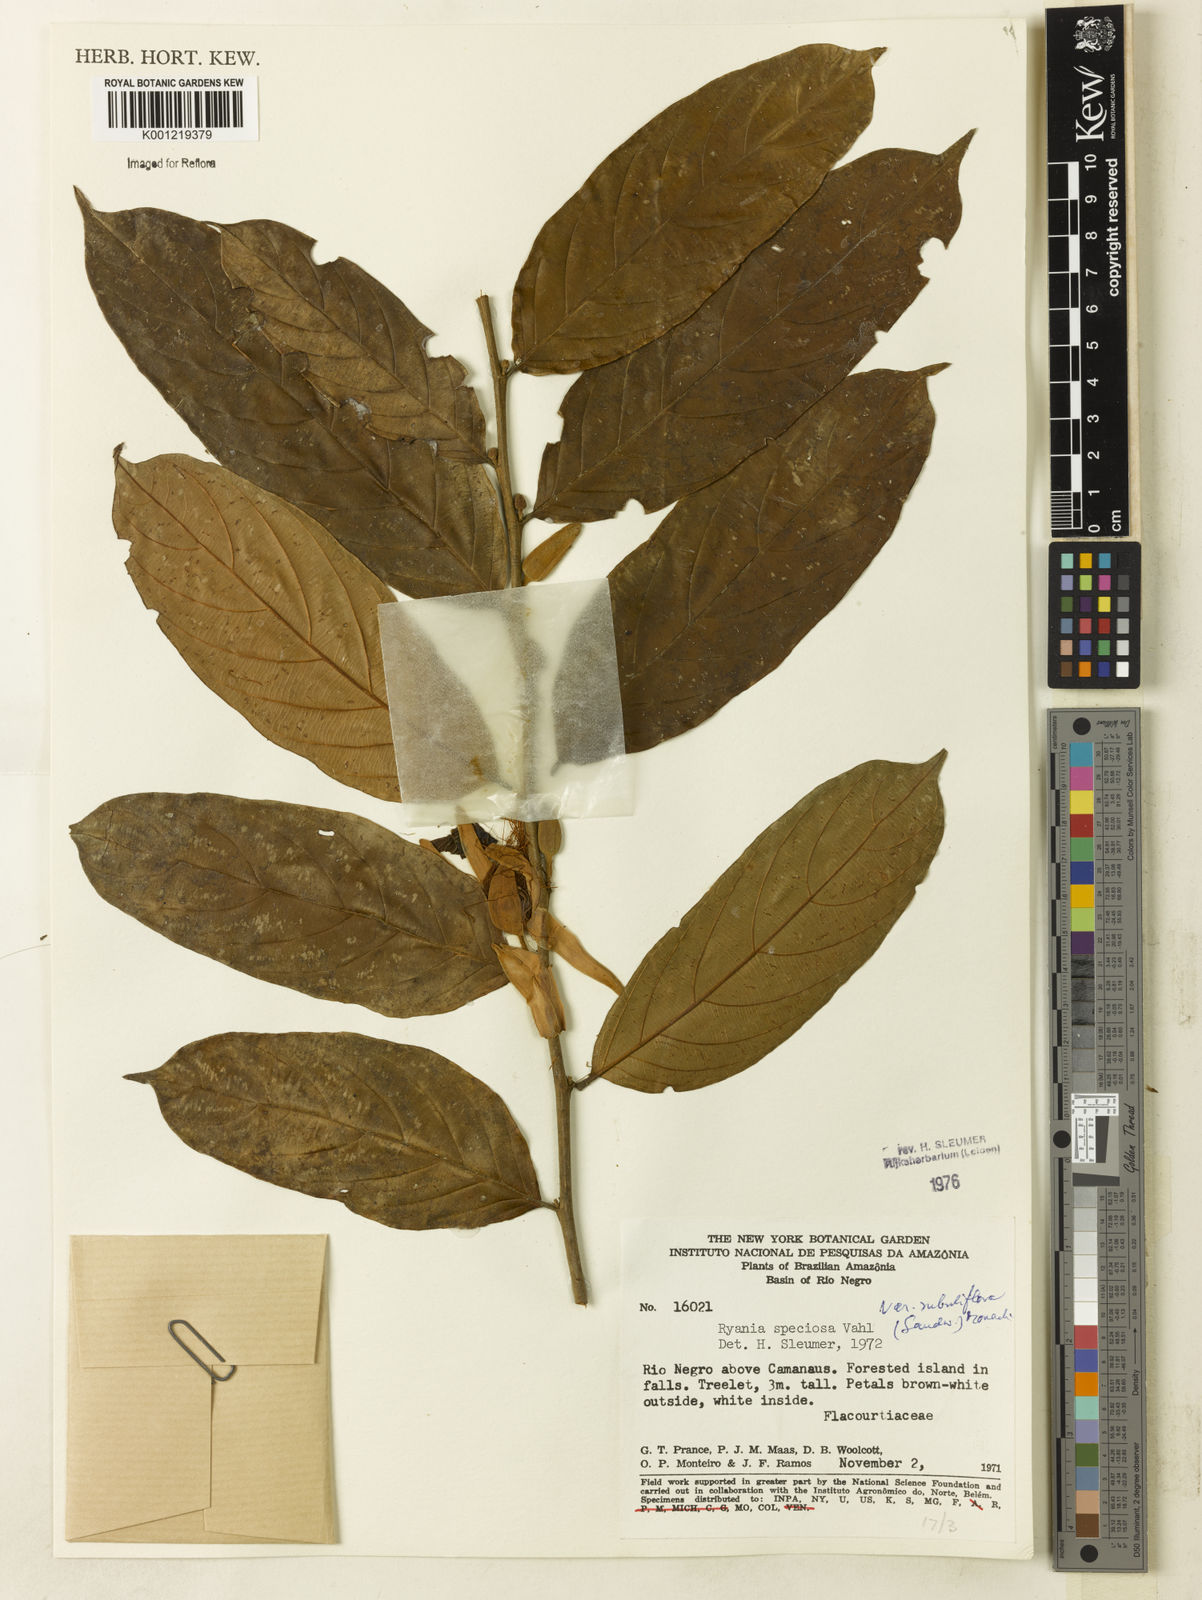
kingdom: Plantae
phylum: Tracheophyta
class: Magnoliopsida
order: Malpighiales
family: Salicaceae
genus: Ryania
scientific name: Ryania speciosa
